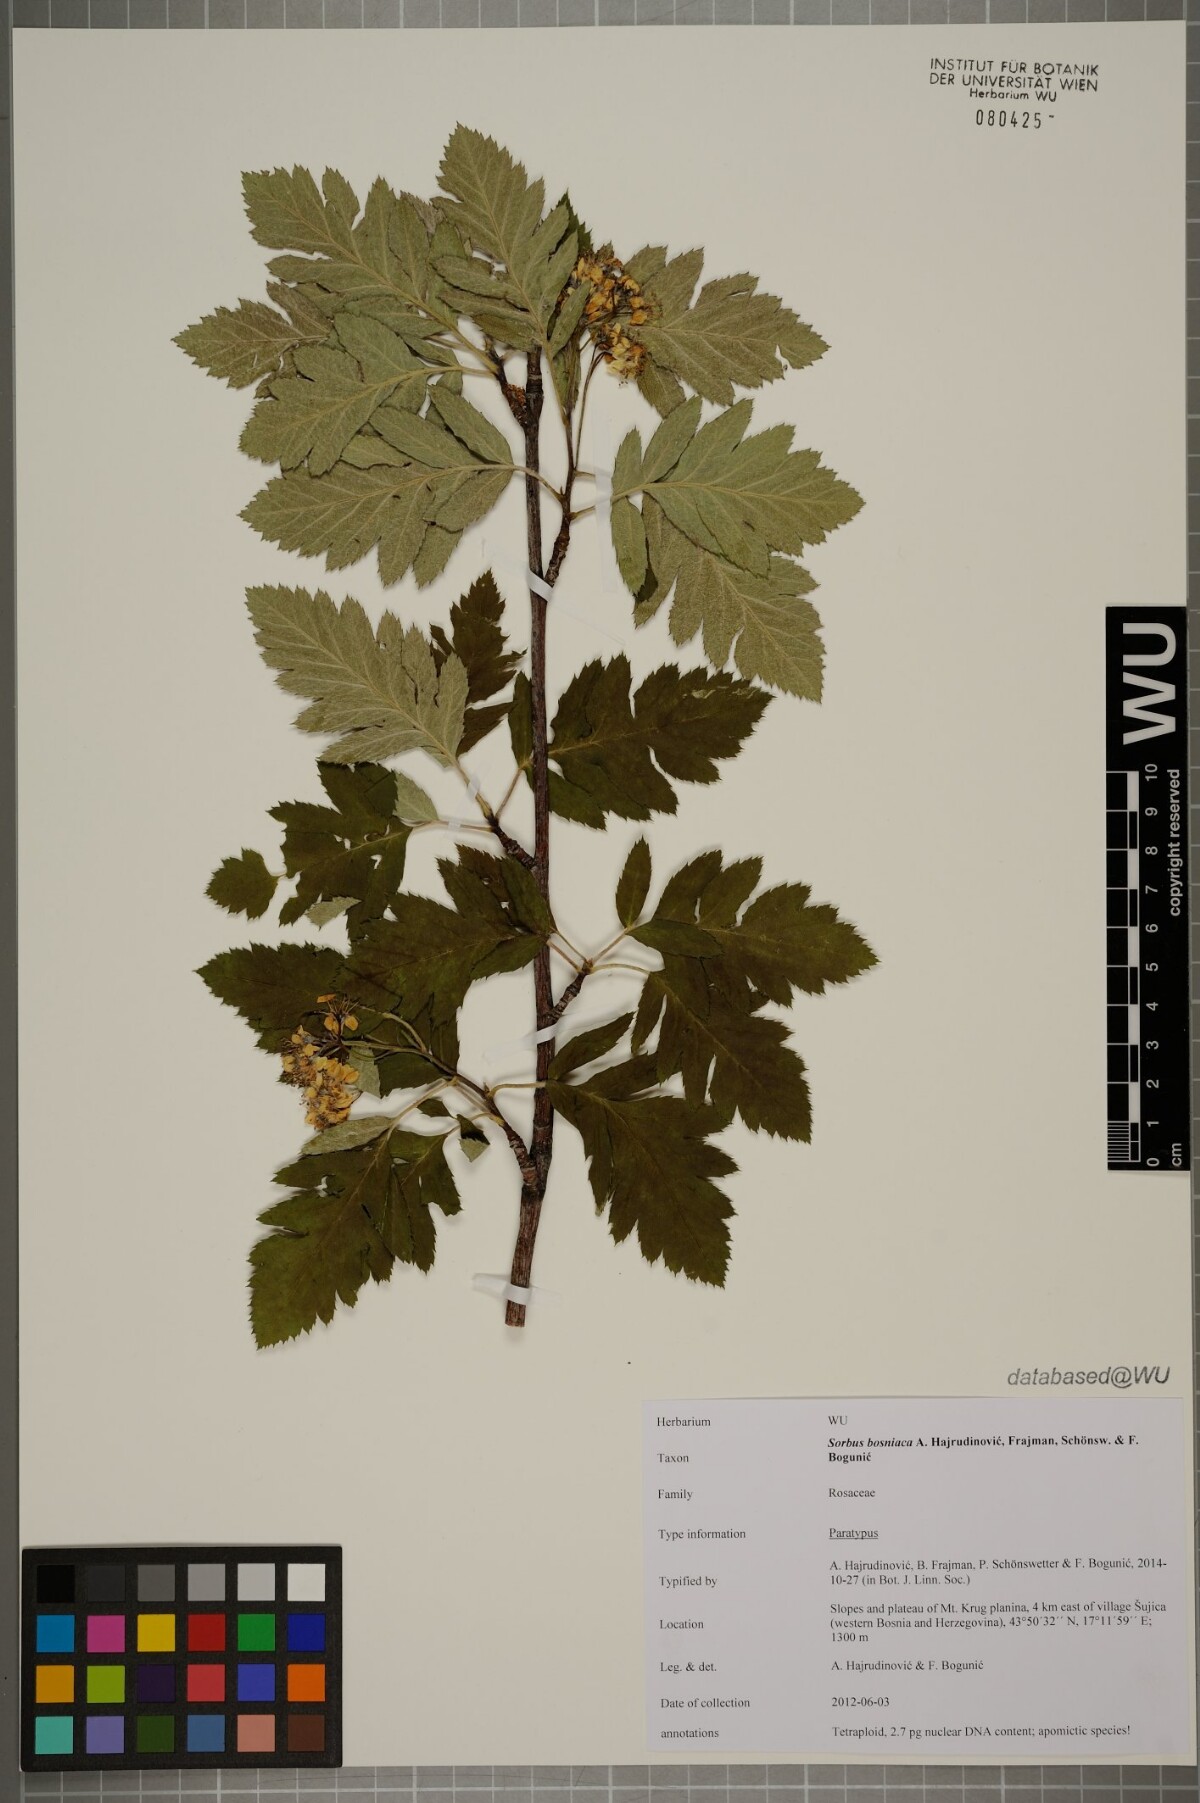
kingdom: Plantae
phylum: Tracheophyta
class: Magnoliopsida
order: Rosales
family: Rosaceae
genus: Hedlundia
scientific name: Hedlundia bosniaca
